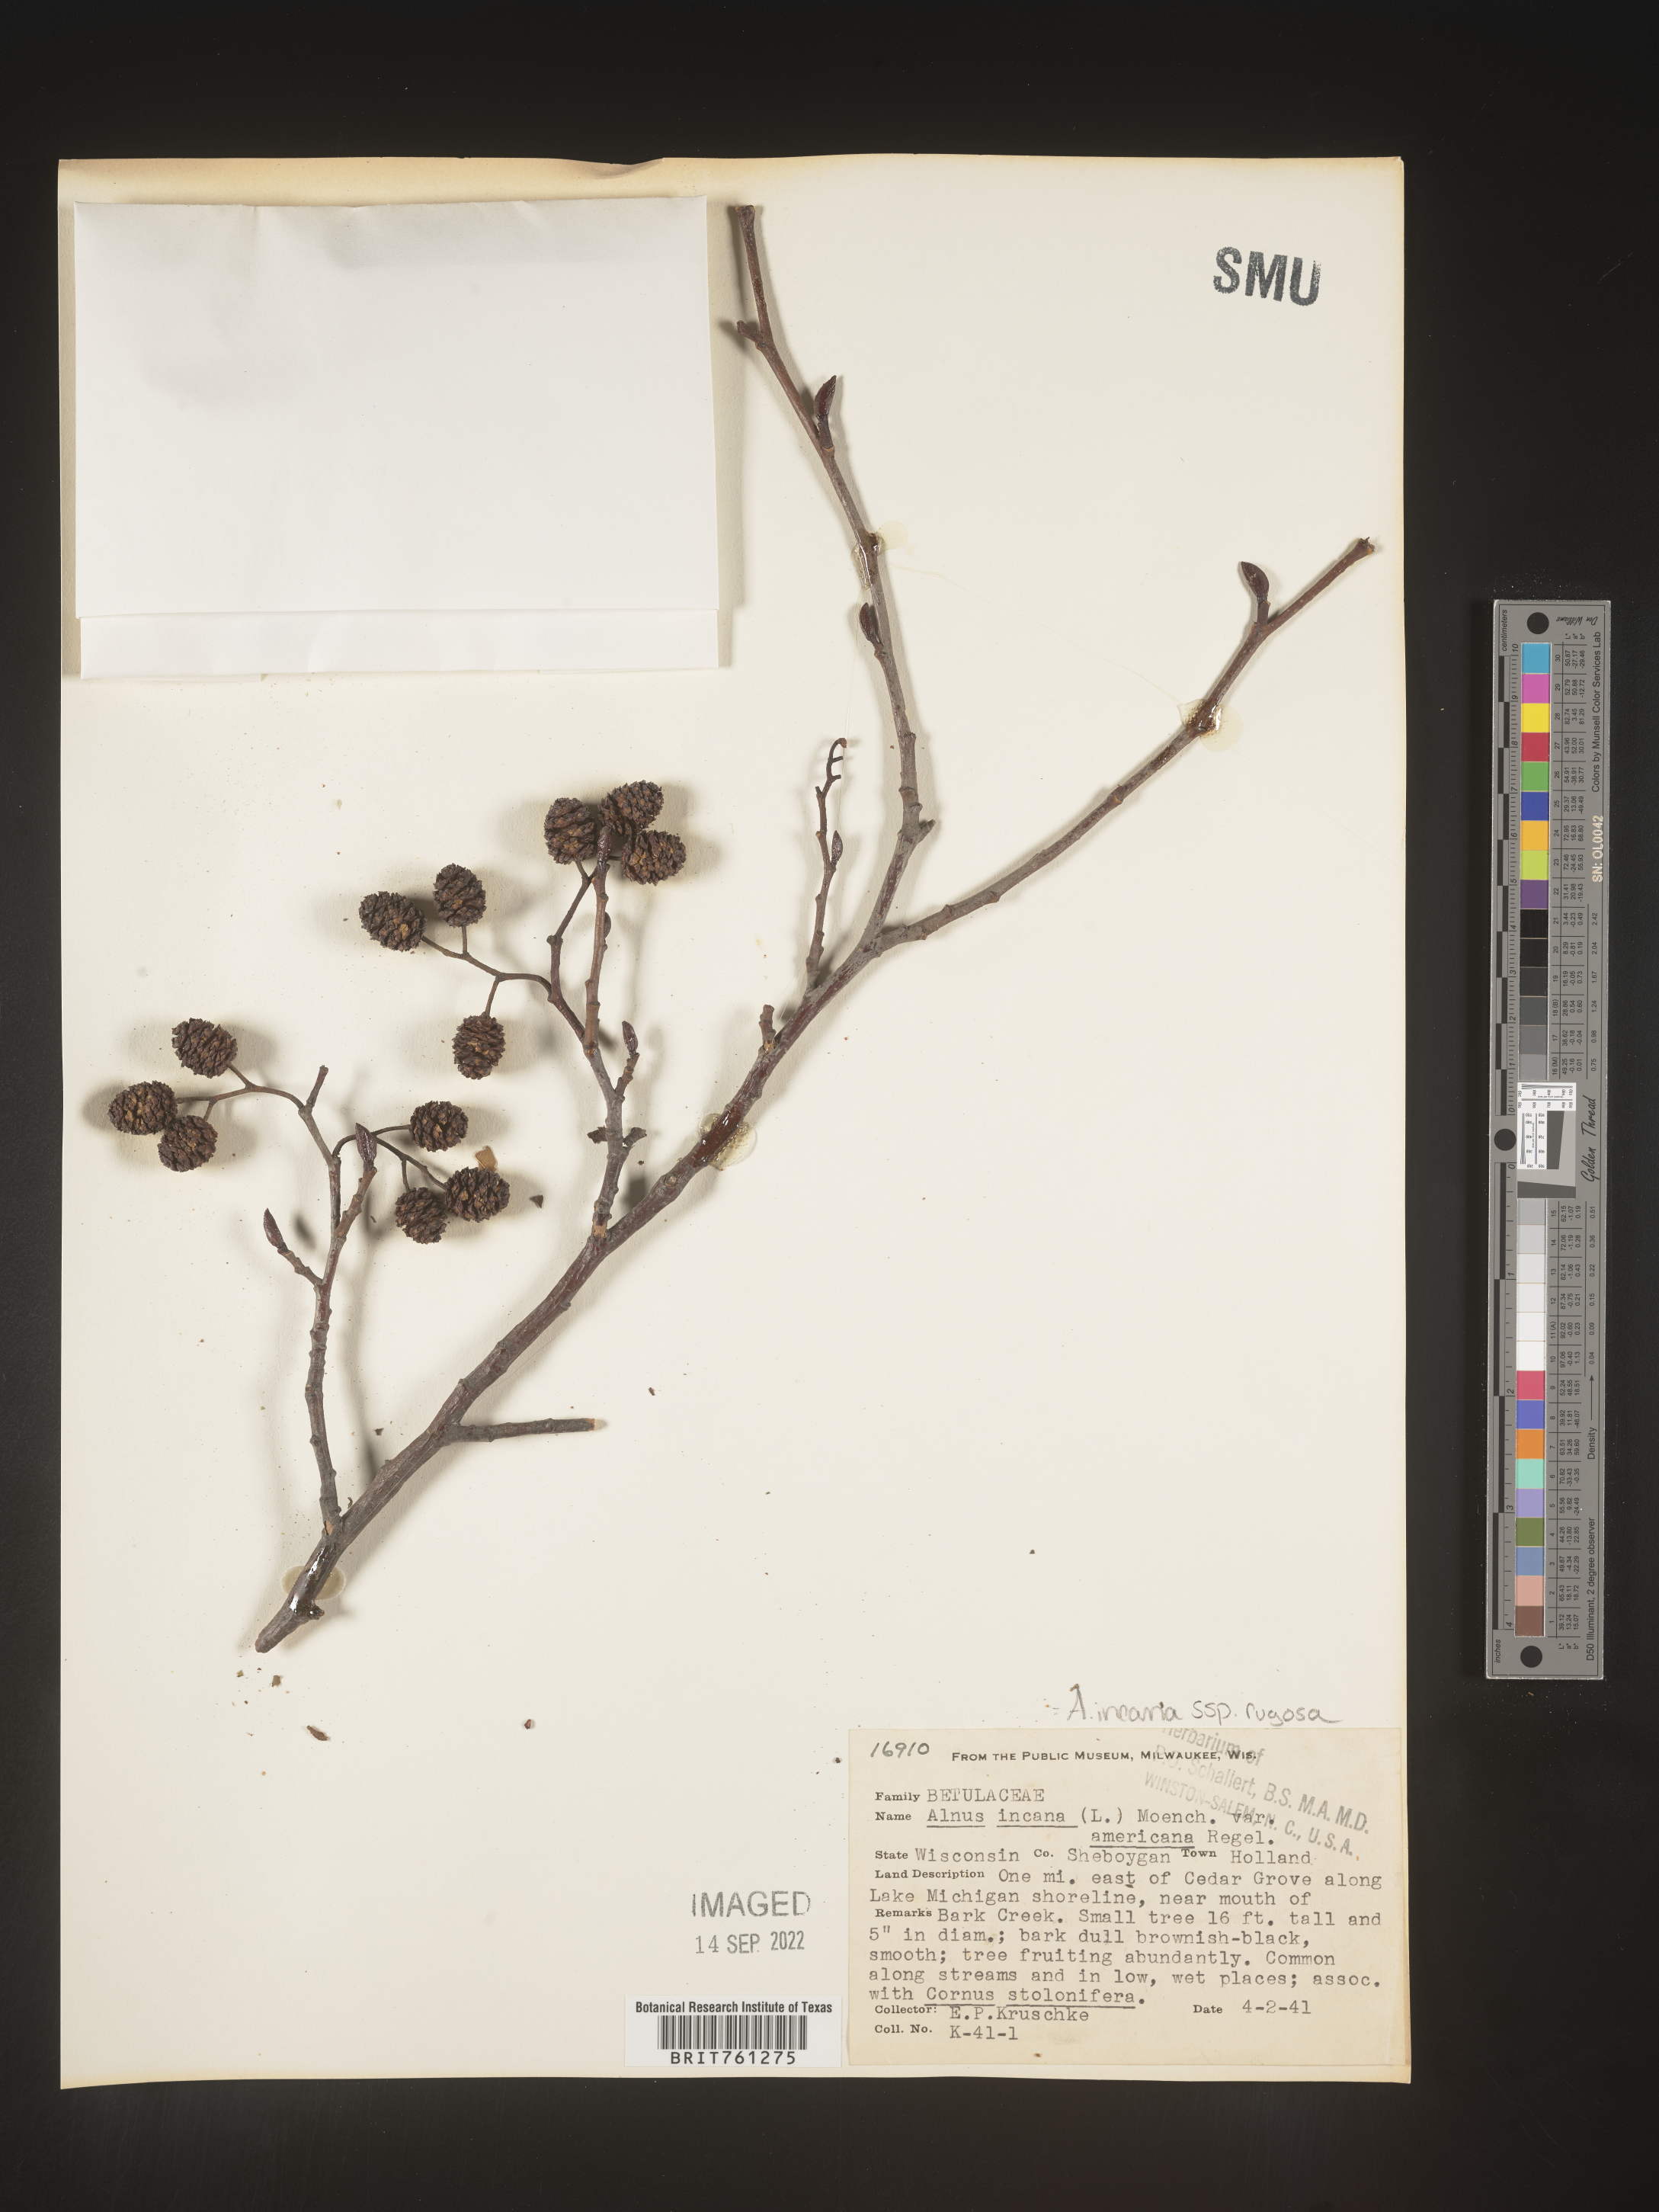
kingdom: Plantae
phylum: Tracheophyta
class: Magnoliopsida
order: Fagales
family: Betulaceae
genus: Alnus
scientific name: Alnus incana
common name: Grey alder
